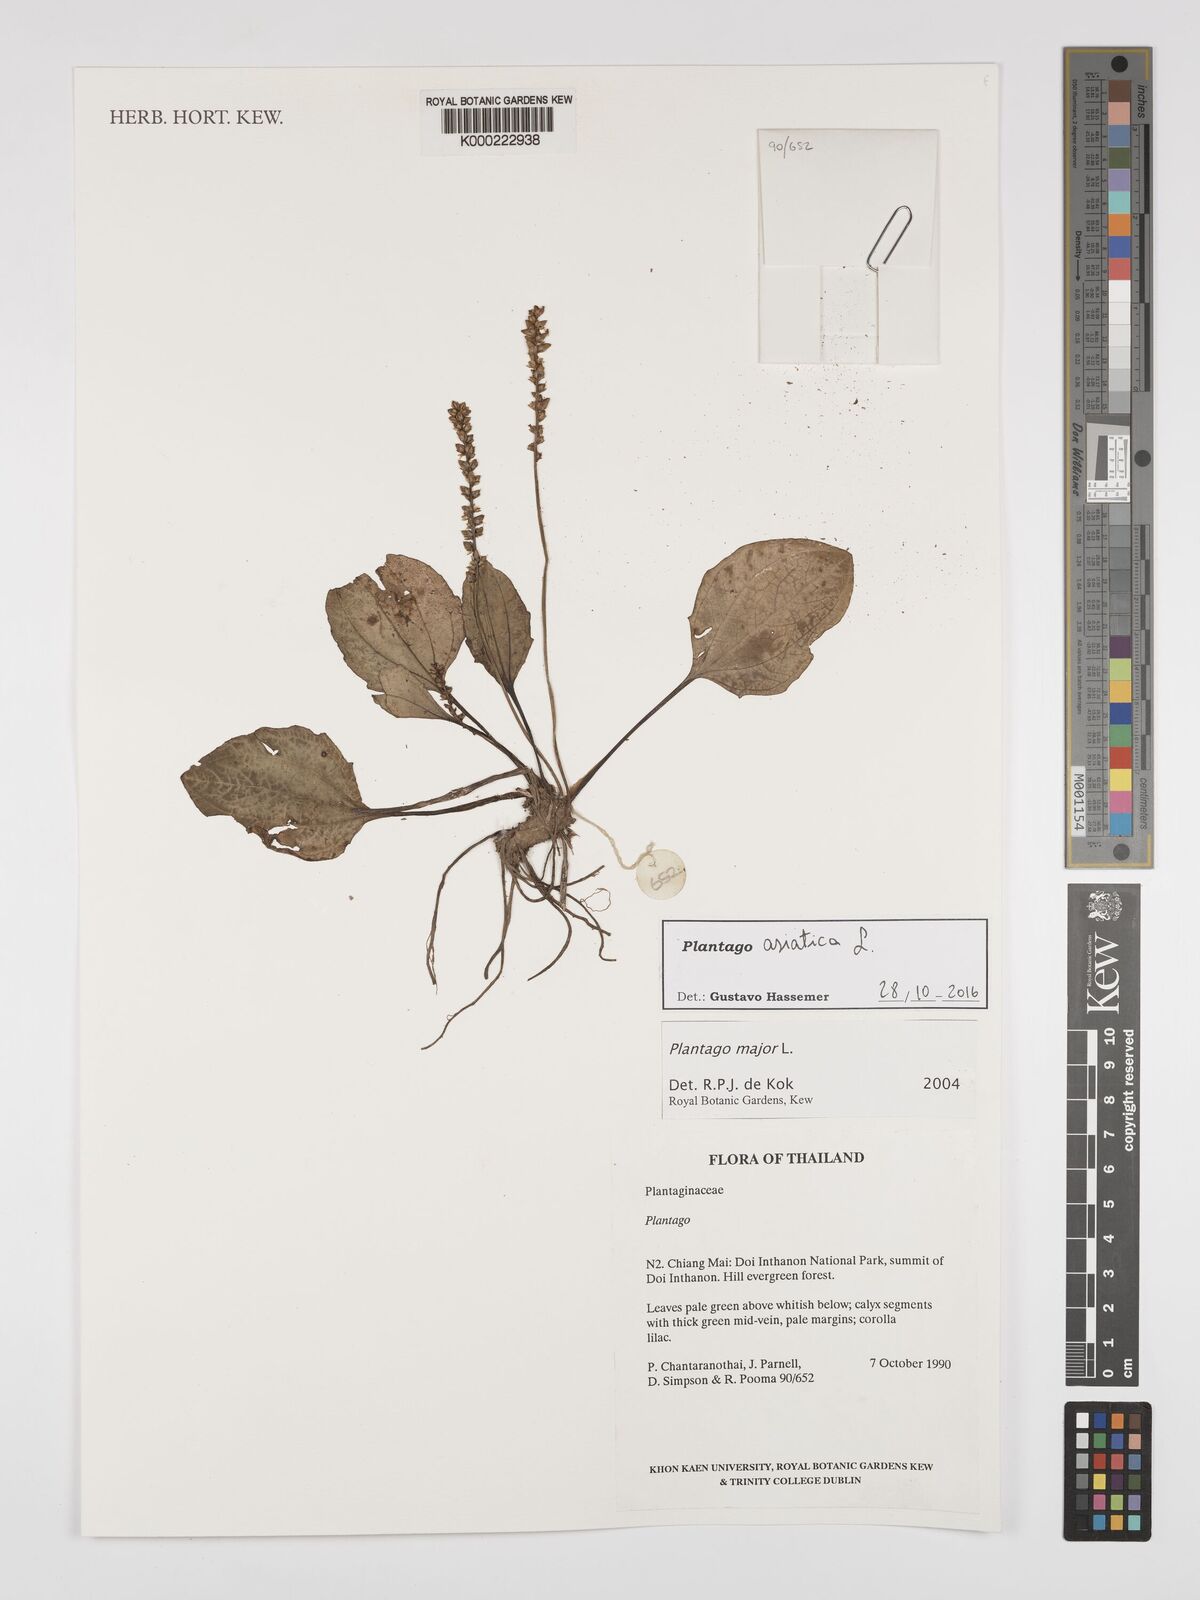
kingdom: Plantae
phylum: Tracheophyta
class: Magnoliopsida
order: Lamiales
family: Plantaginaceae
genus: Plantago
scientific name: Plantago asiatica
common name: Psyllium
